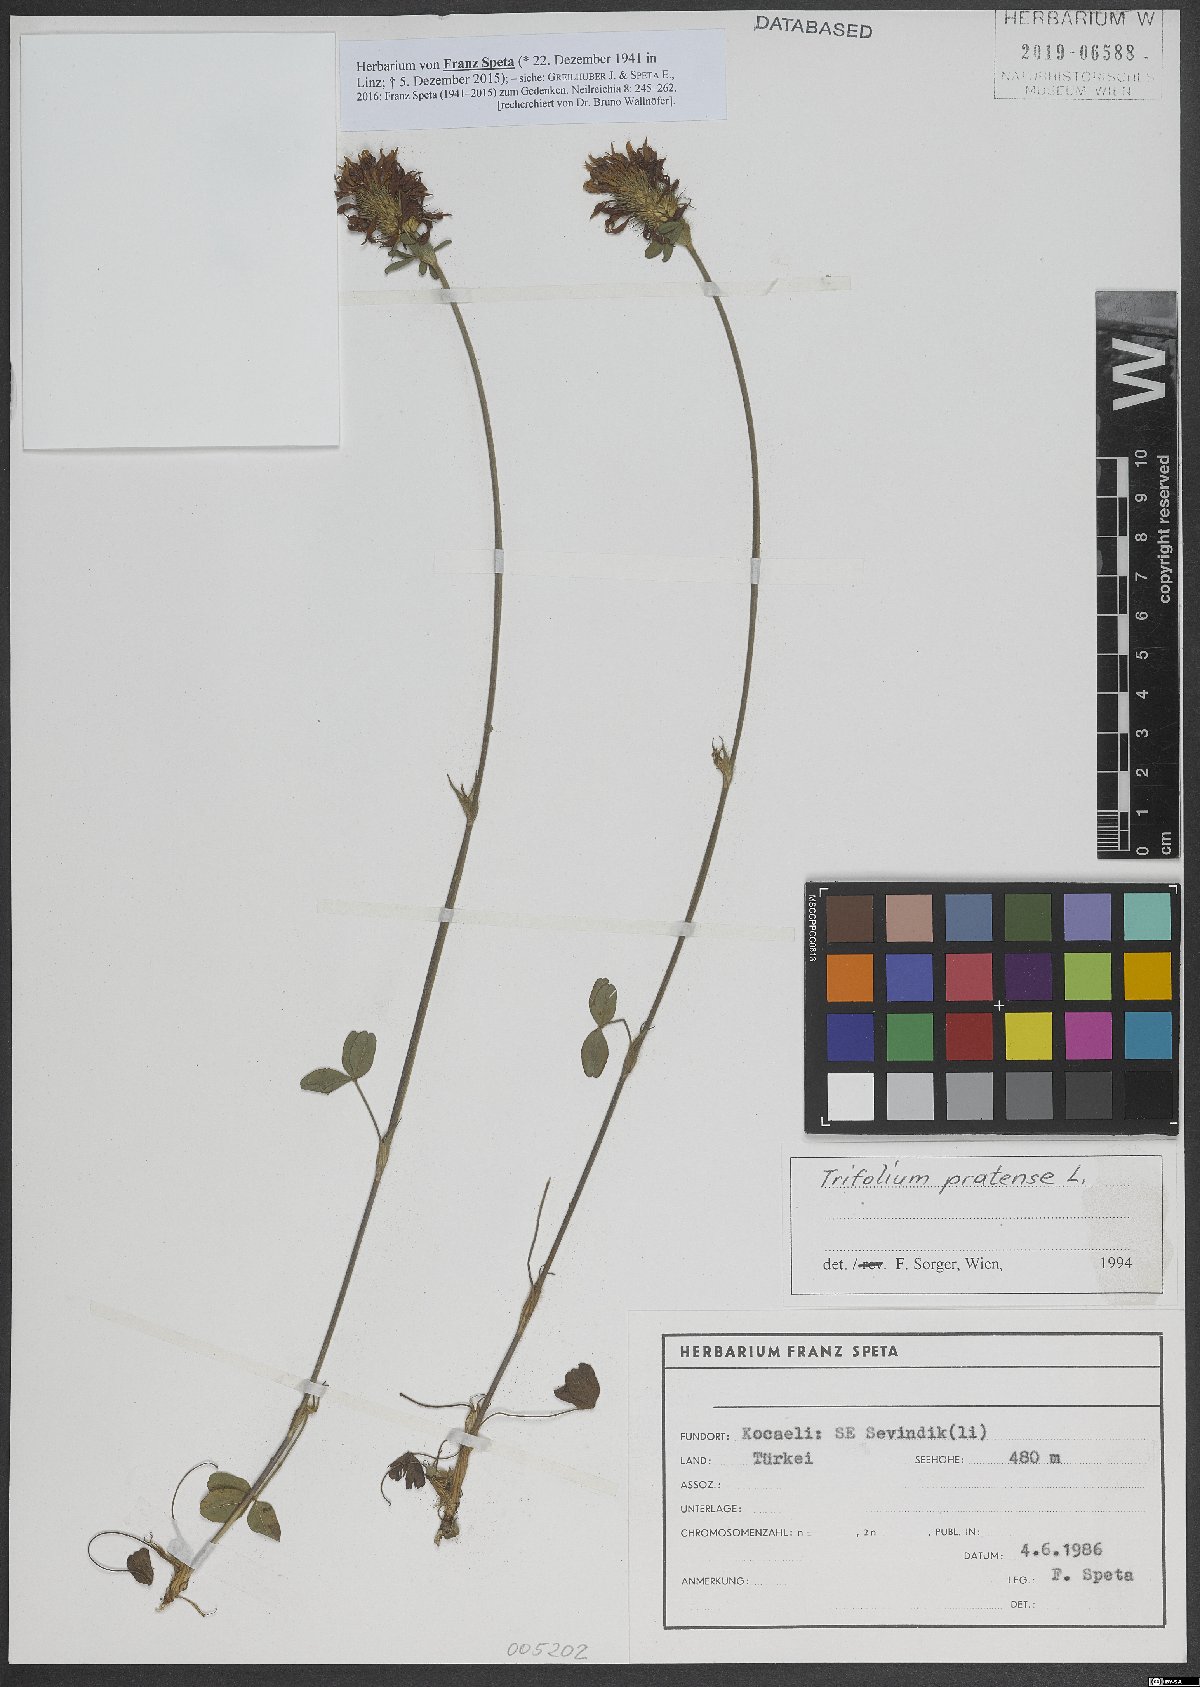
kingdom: Plantae
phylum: Tracheophyta
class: Magnoliopsida
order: Fabales
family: Fabaceae
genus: Trifolium
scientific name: Trifolium pratense
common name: Red clover
